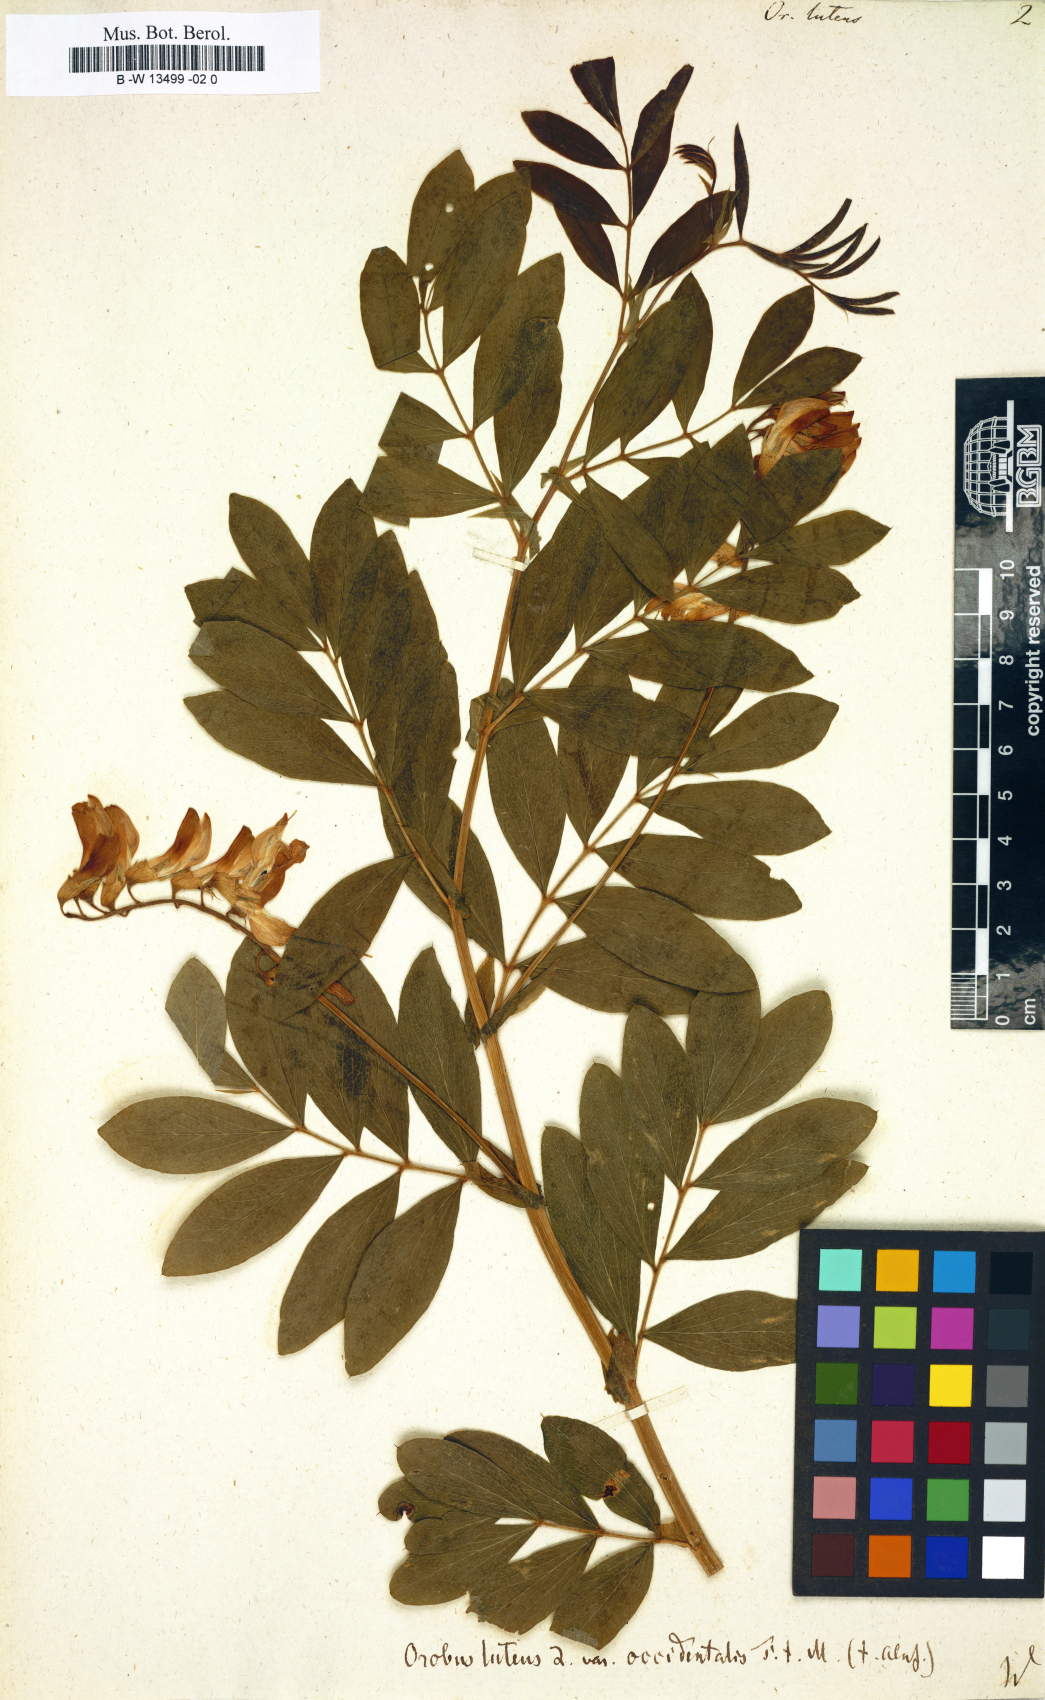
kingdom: Plantae
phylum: Tracheophyta
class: Magnoliopsida
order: Fabales
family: Fabaceae
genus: Lathyrus
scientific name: Lathyrus linifolius
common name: Bitter-vetch
